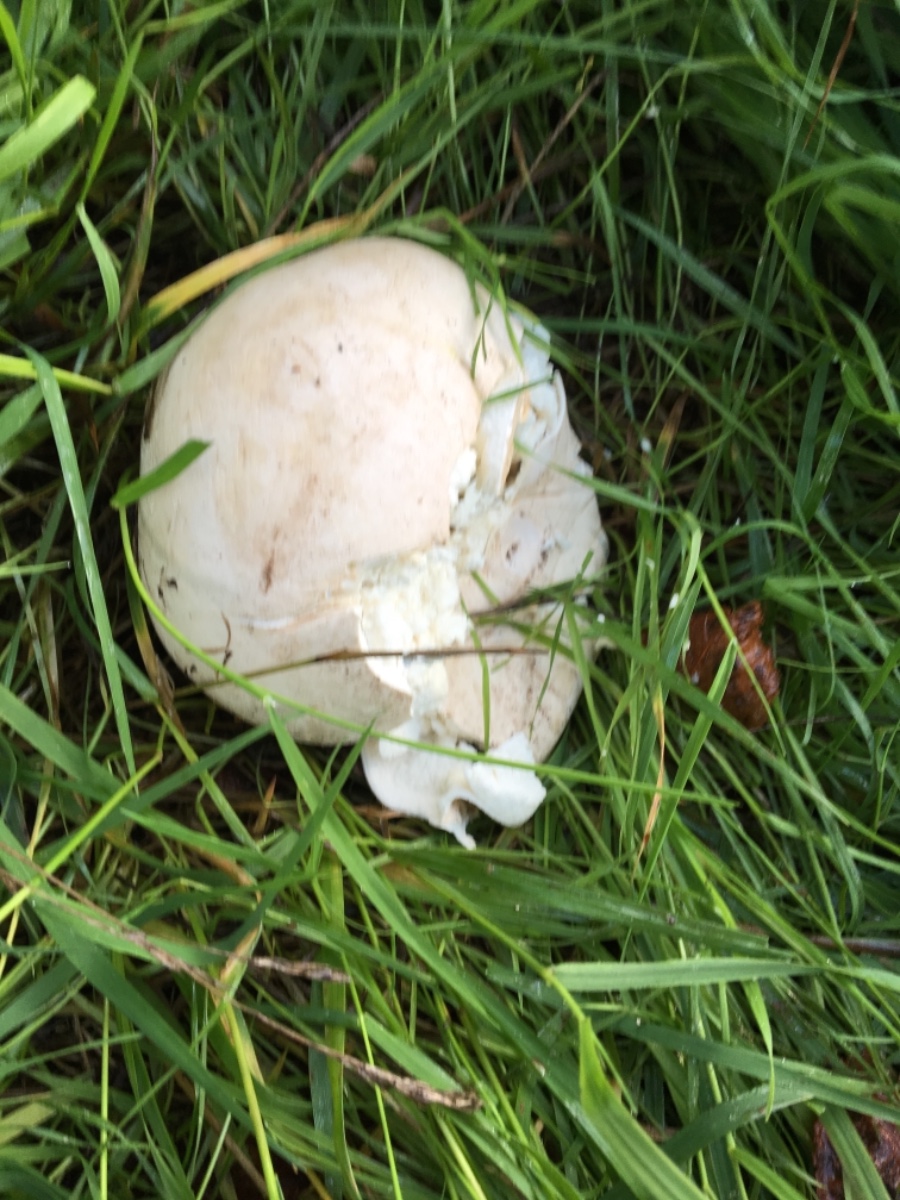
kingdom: Fungi
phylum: Basidiomycota
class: Agaricomycetes
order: Agaricales
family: Lycoperdaceae
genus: Calvatia
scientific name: Calvatia gigantea
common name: kæmpestøvbold
